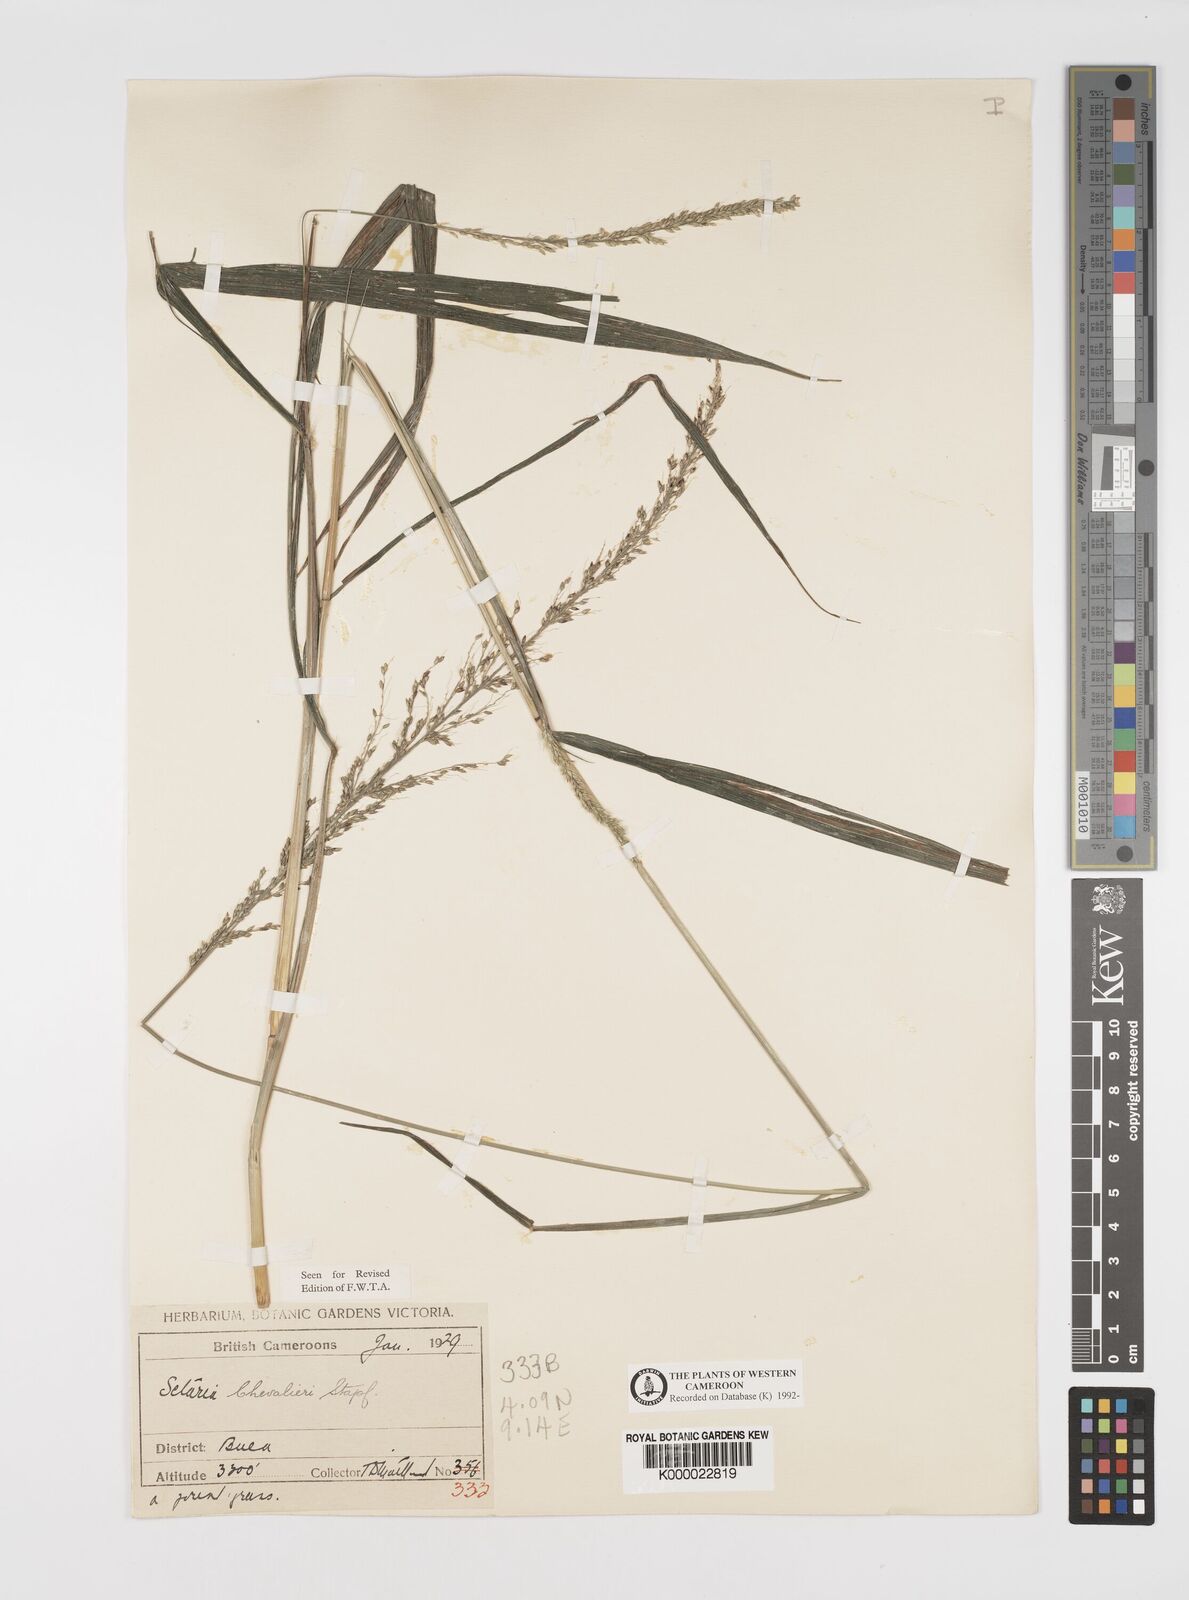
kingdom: Plantae
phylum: Tracheophyta
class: Liliopsida
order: Poales
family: Poaceae
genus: Setaria
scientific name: Setaria megaphylla
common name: Bigleaf bristlegrass
